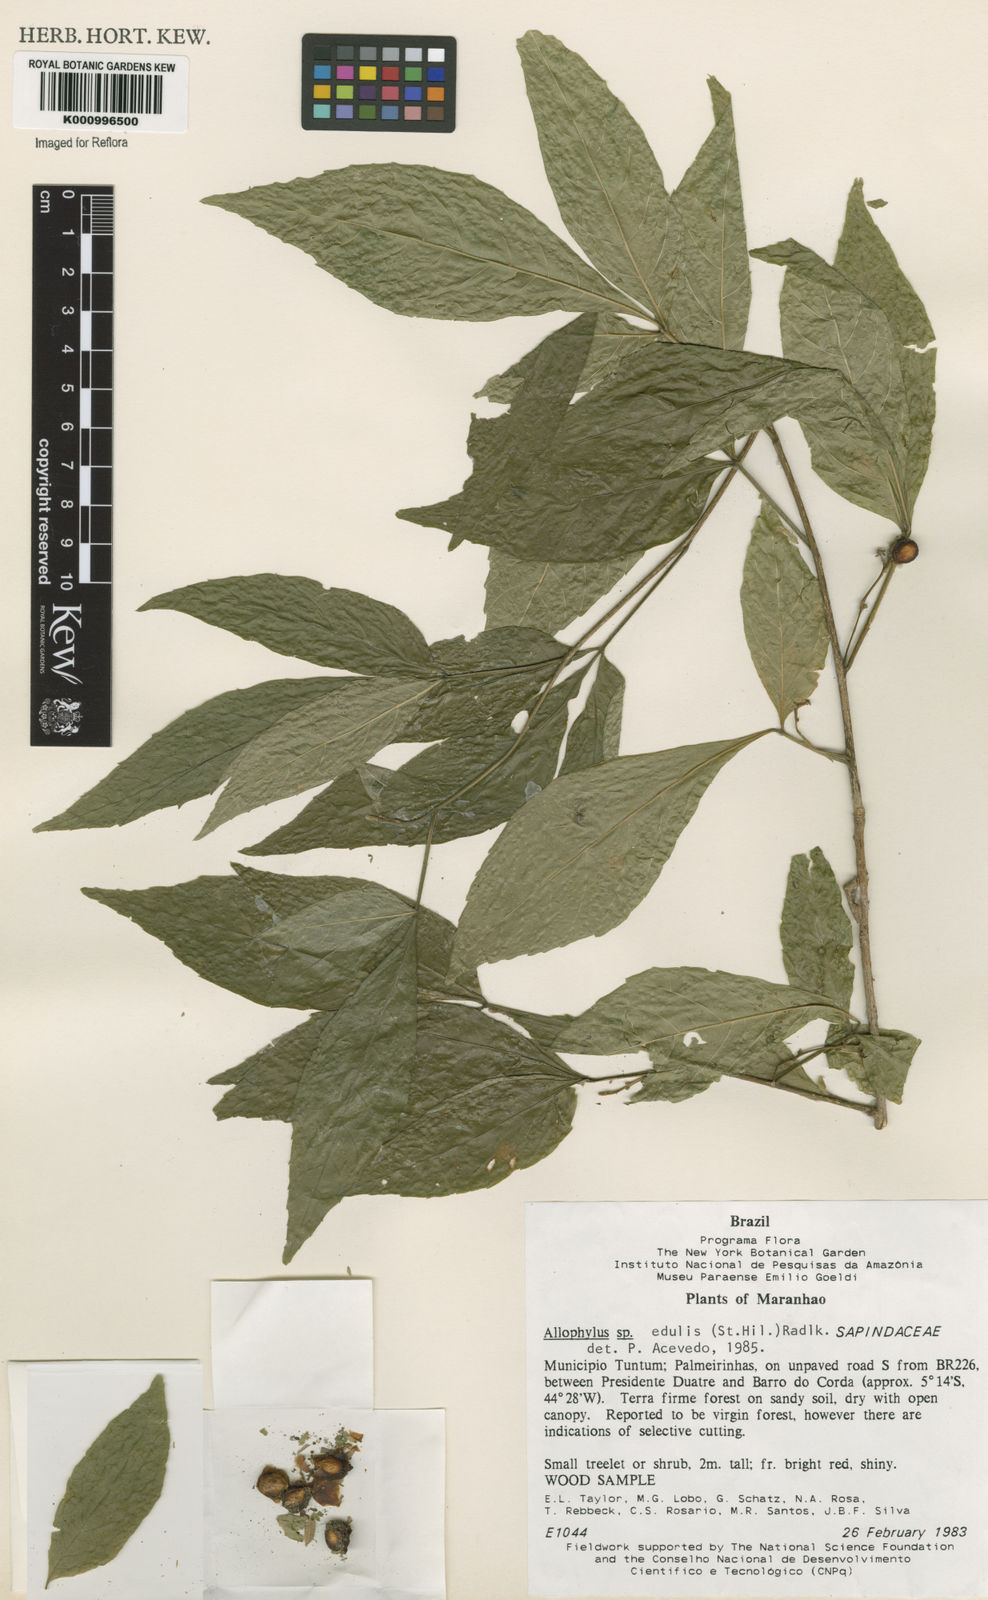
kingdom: Plantae
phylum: Tracheophyta
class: Magnoliopsida
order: Sapindales
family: Sapindaceae
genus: Allophylus
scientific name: Allophylus edulis
